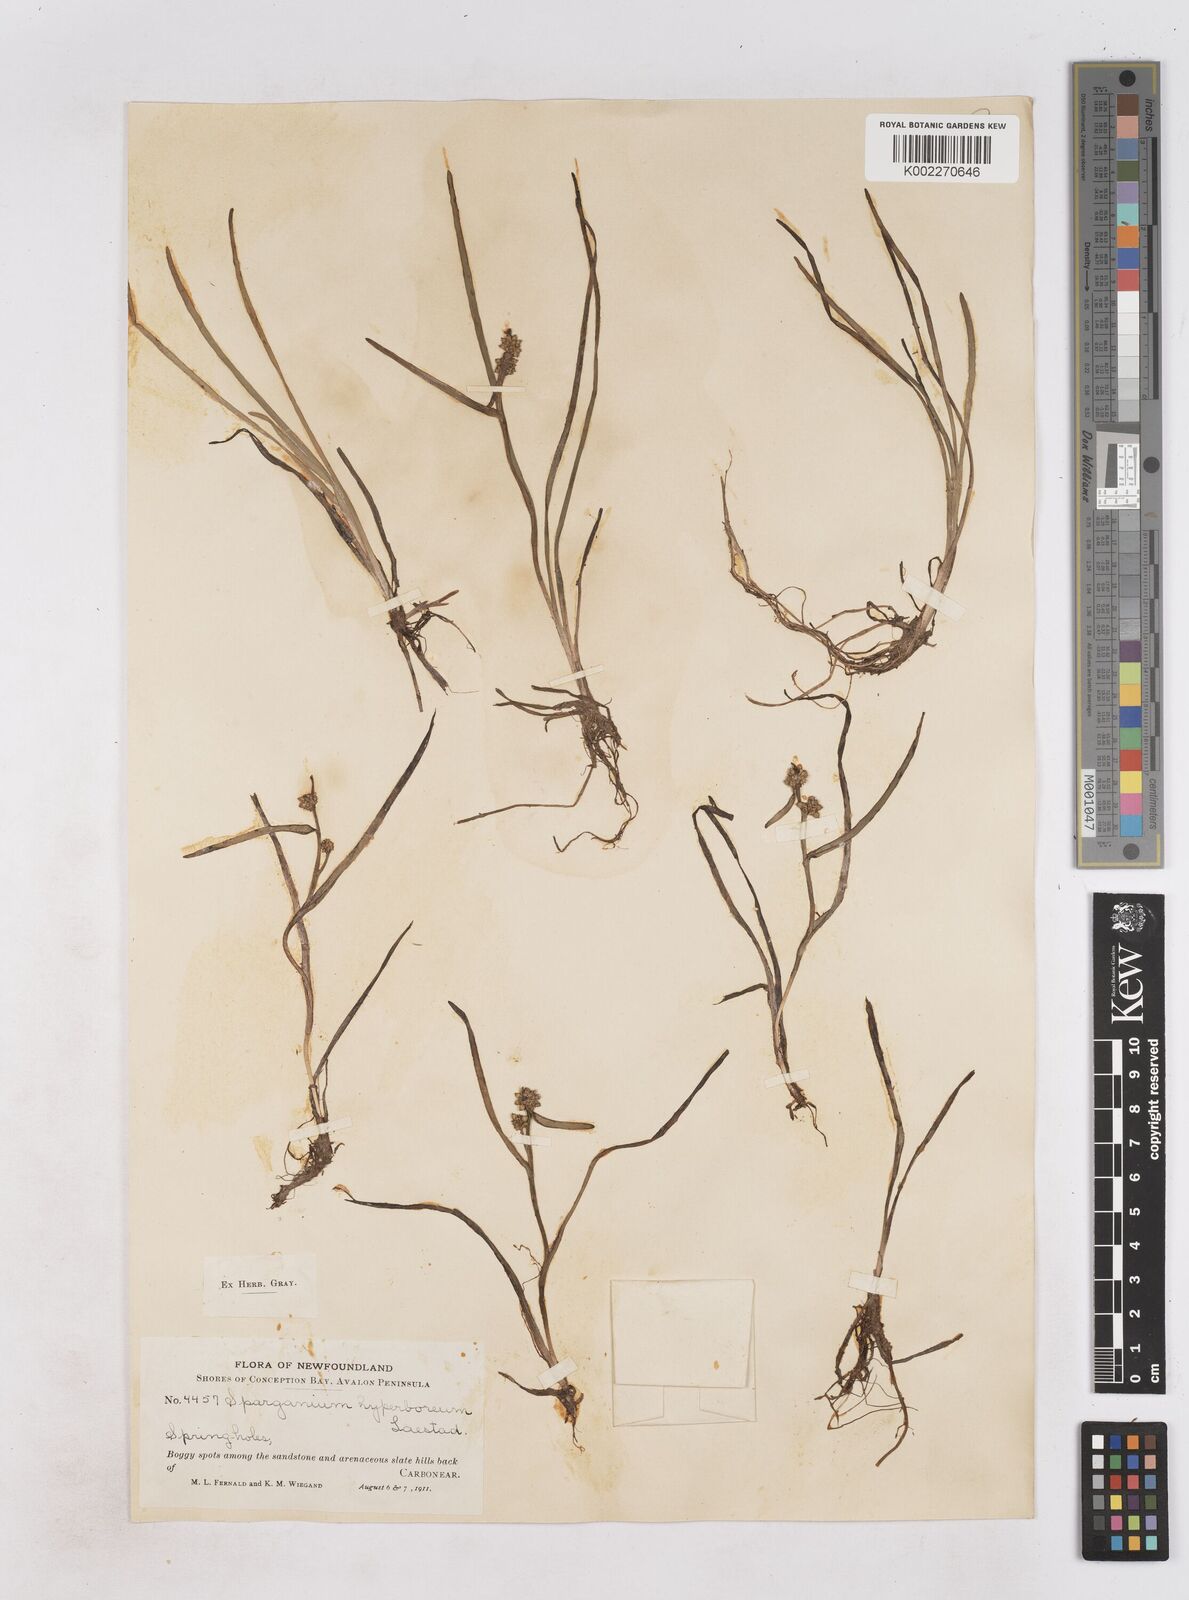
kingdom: Plantae
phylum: Tracheophyta
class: Liliopsida
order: Poales
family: Typhaceae
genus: Sparganium
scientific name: Sparganium hyperboreum
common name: Arctic burreed
